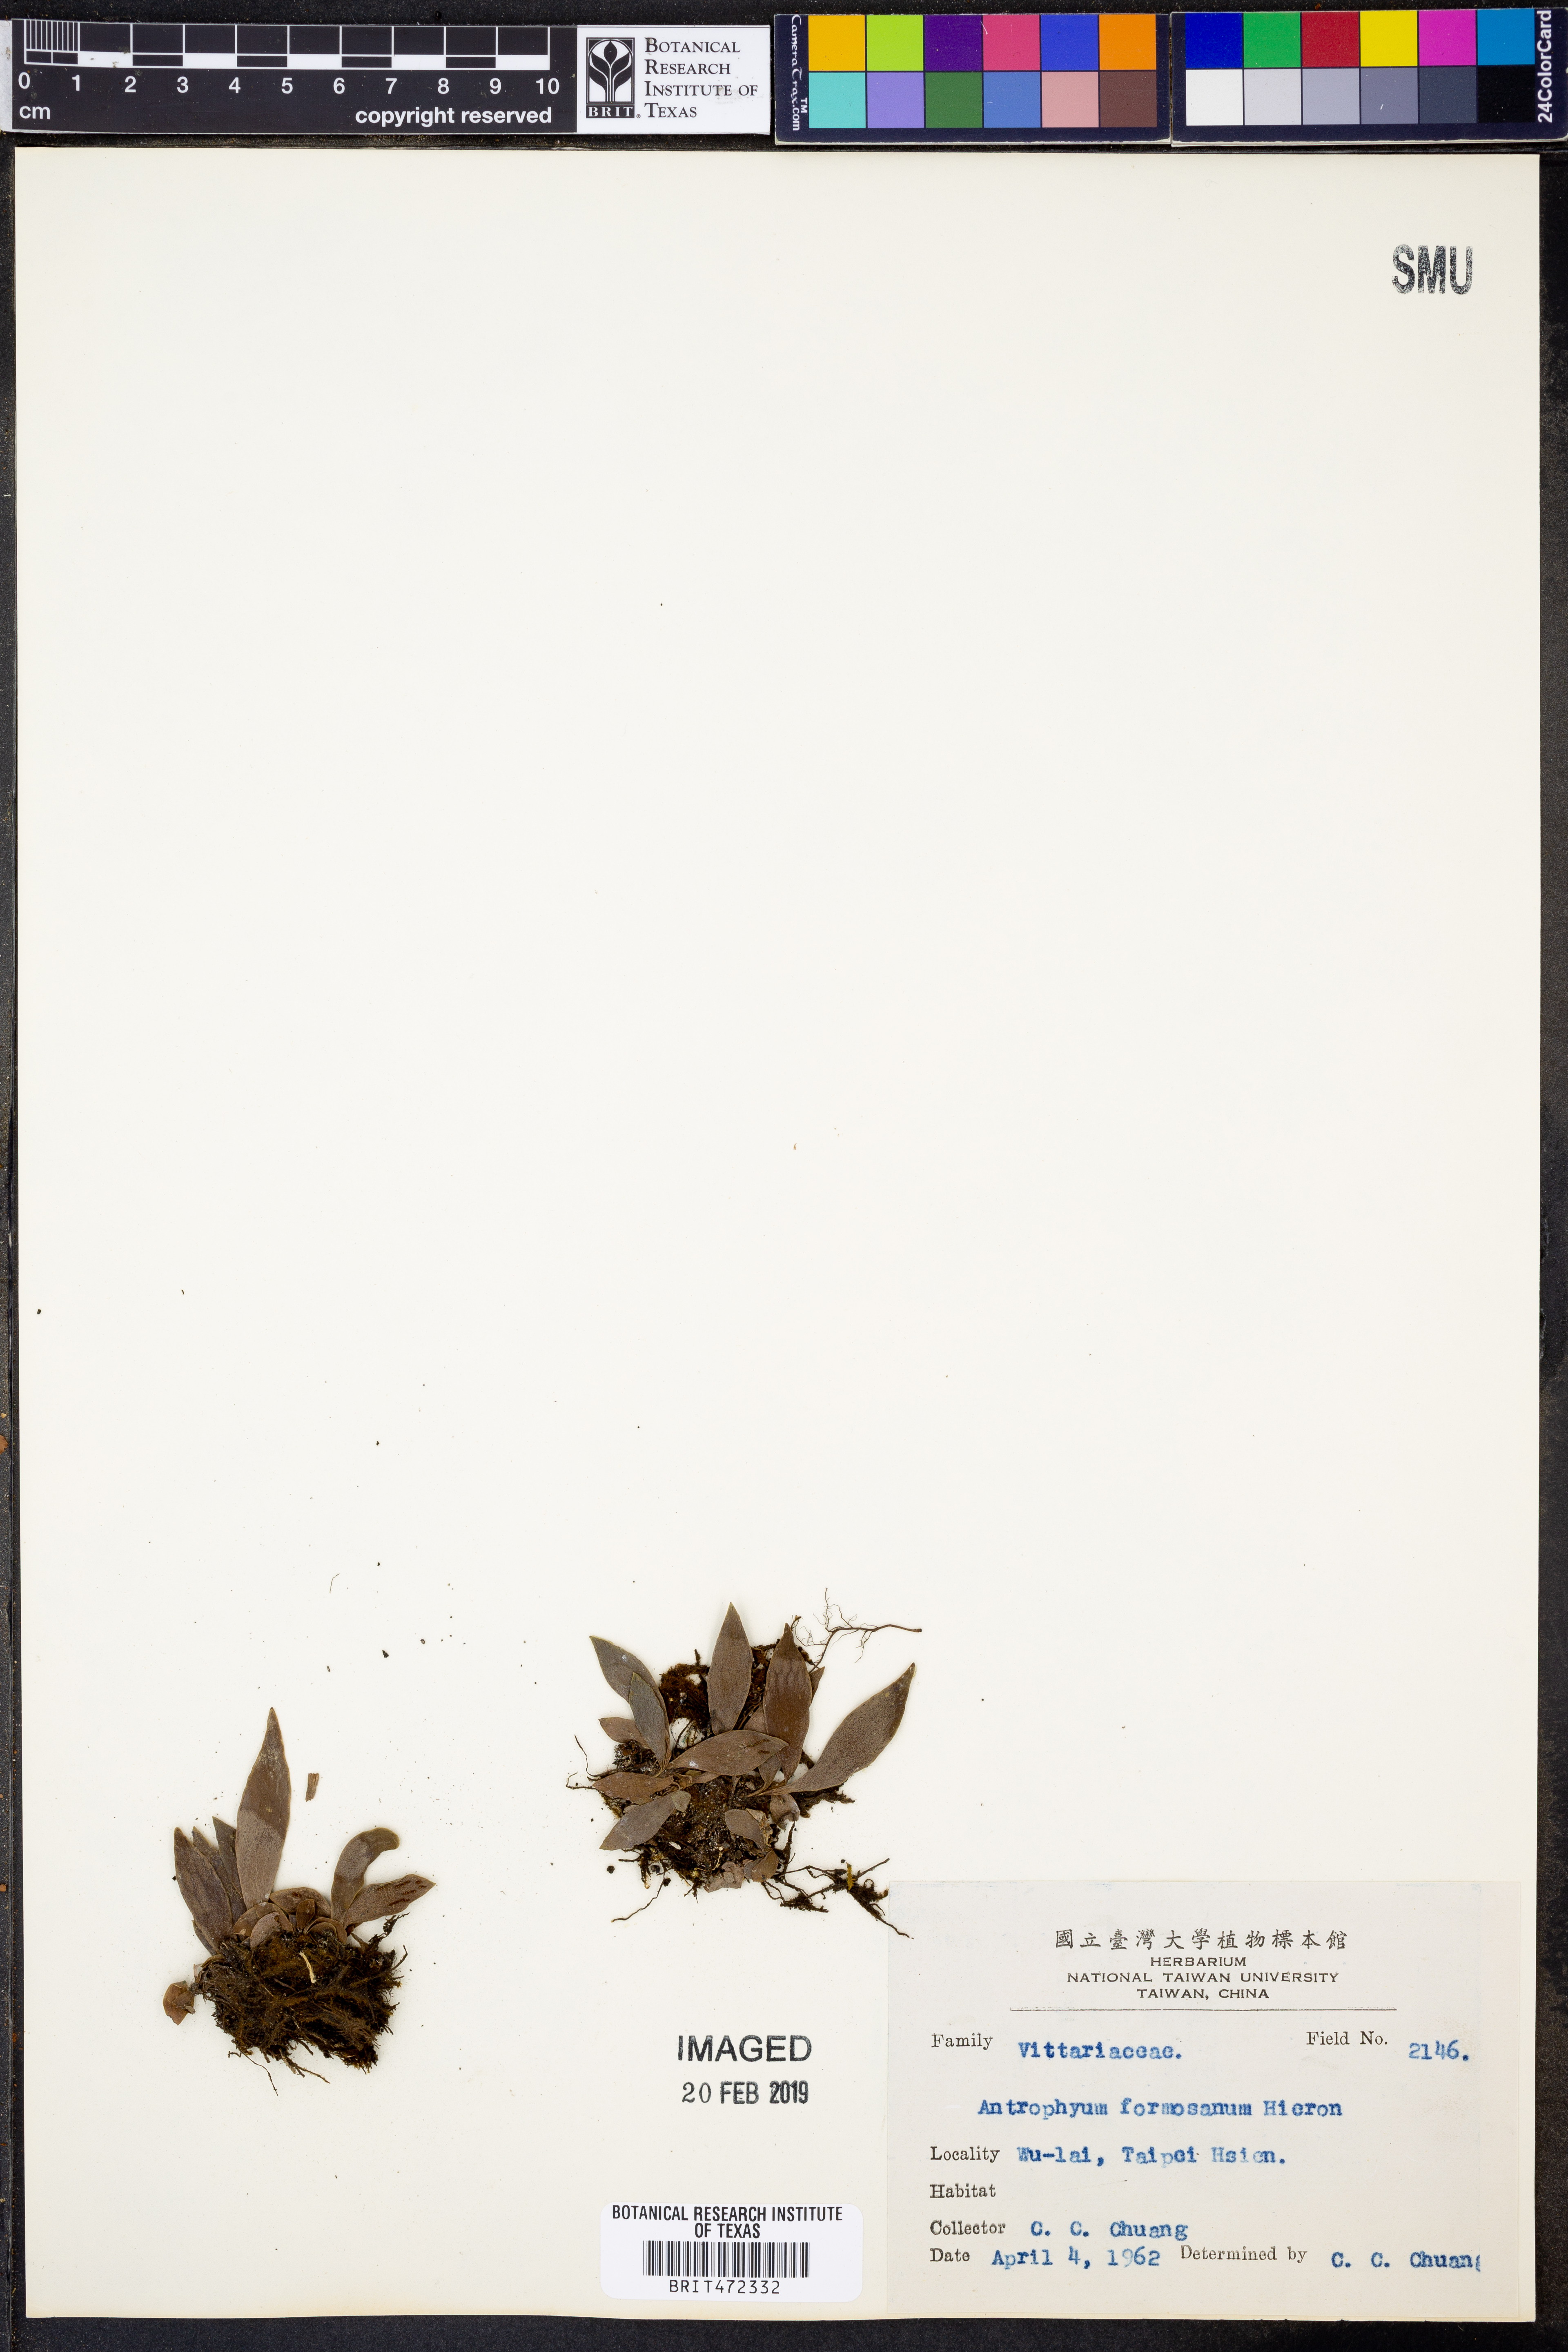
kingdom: Plantae
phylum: Tracheophyta
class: Polypodiopsida
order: Polypodiales
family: Pteridaceae
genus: Antrophyum
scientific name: Antrophyum formosanum
